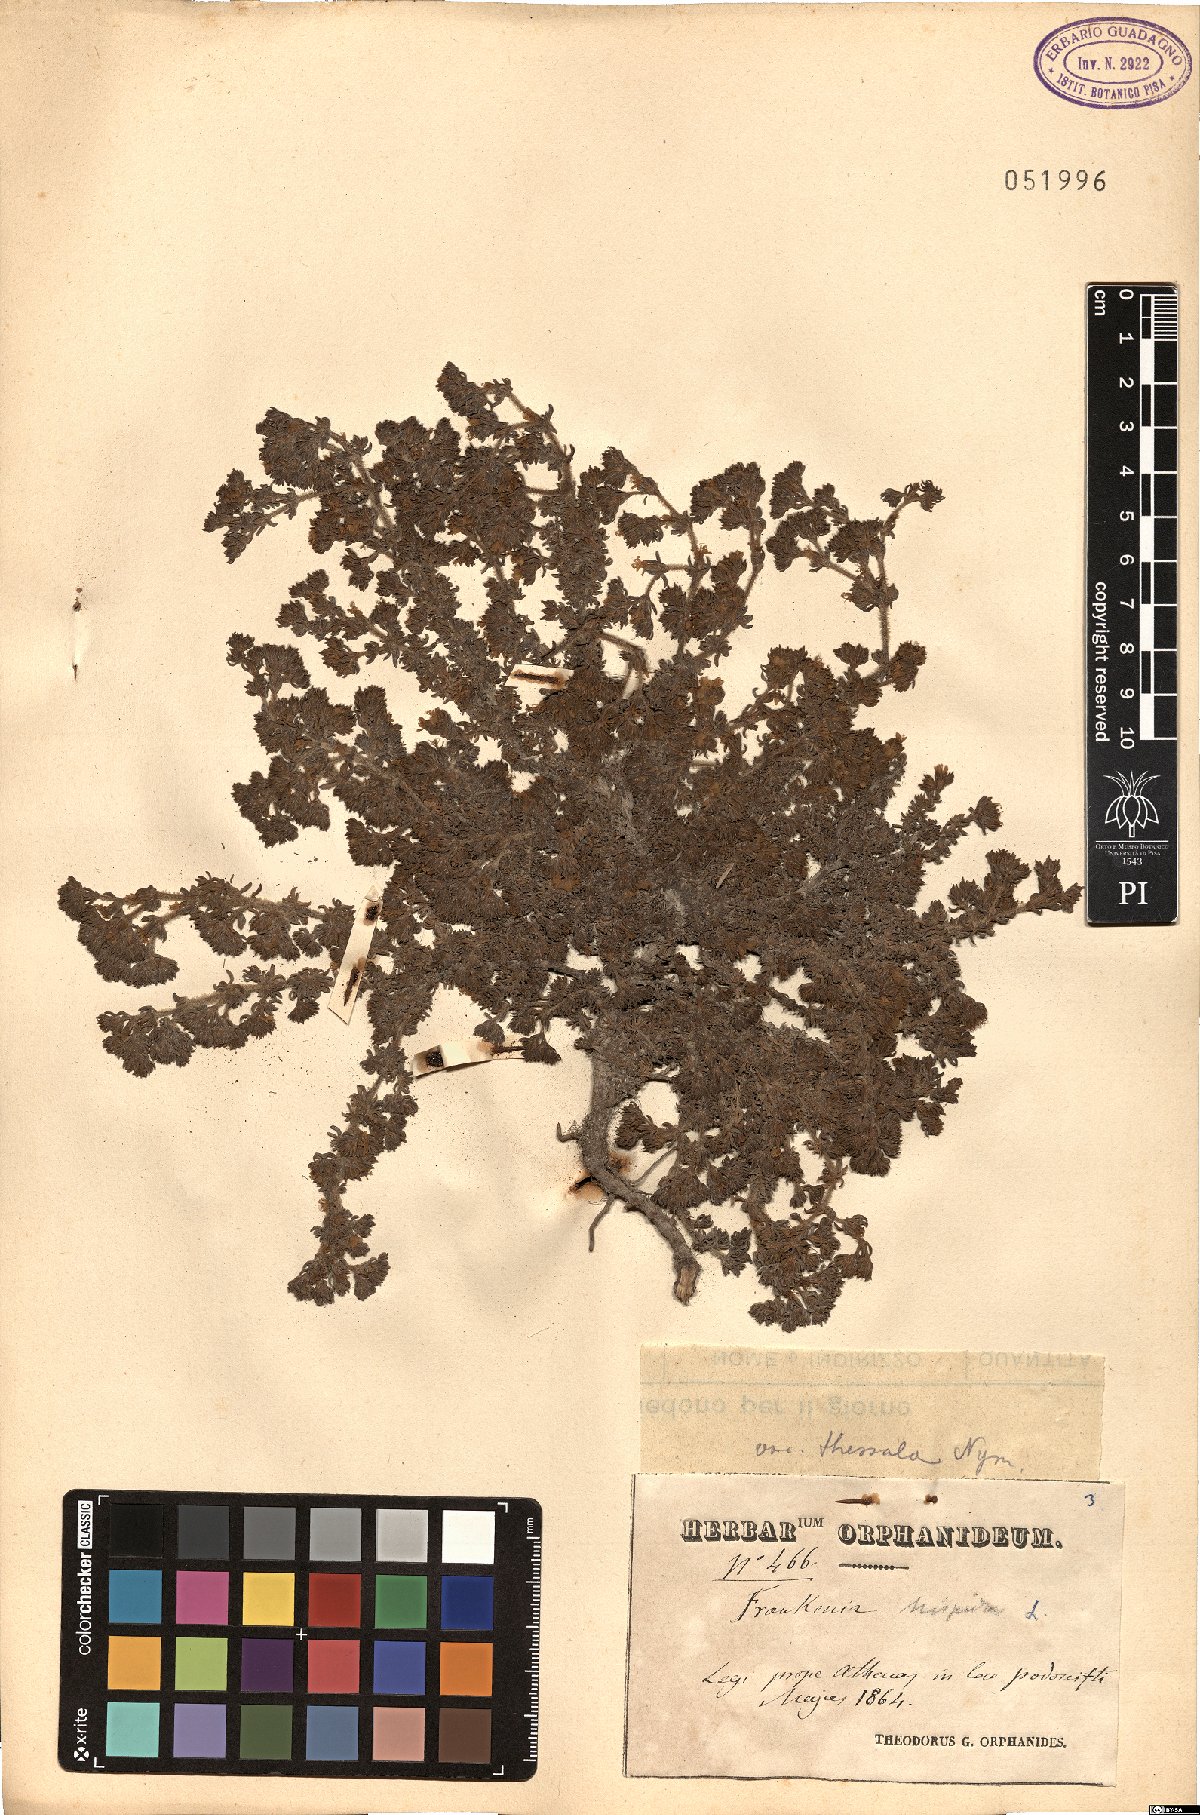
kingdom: Plantae
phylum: Tracheophyta
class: Magnoliopsida
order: Caryophyllales
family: Frankeniaceae
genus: Frankenia
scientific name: Frankenia hirsuta
